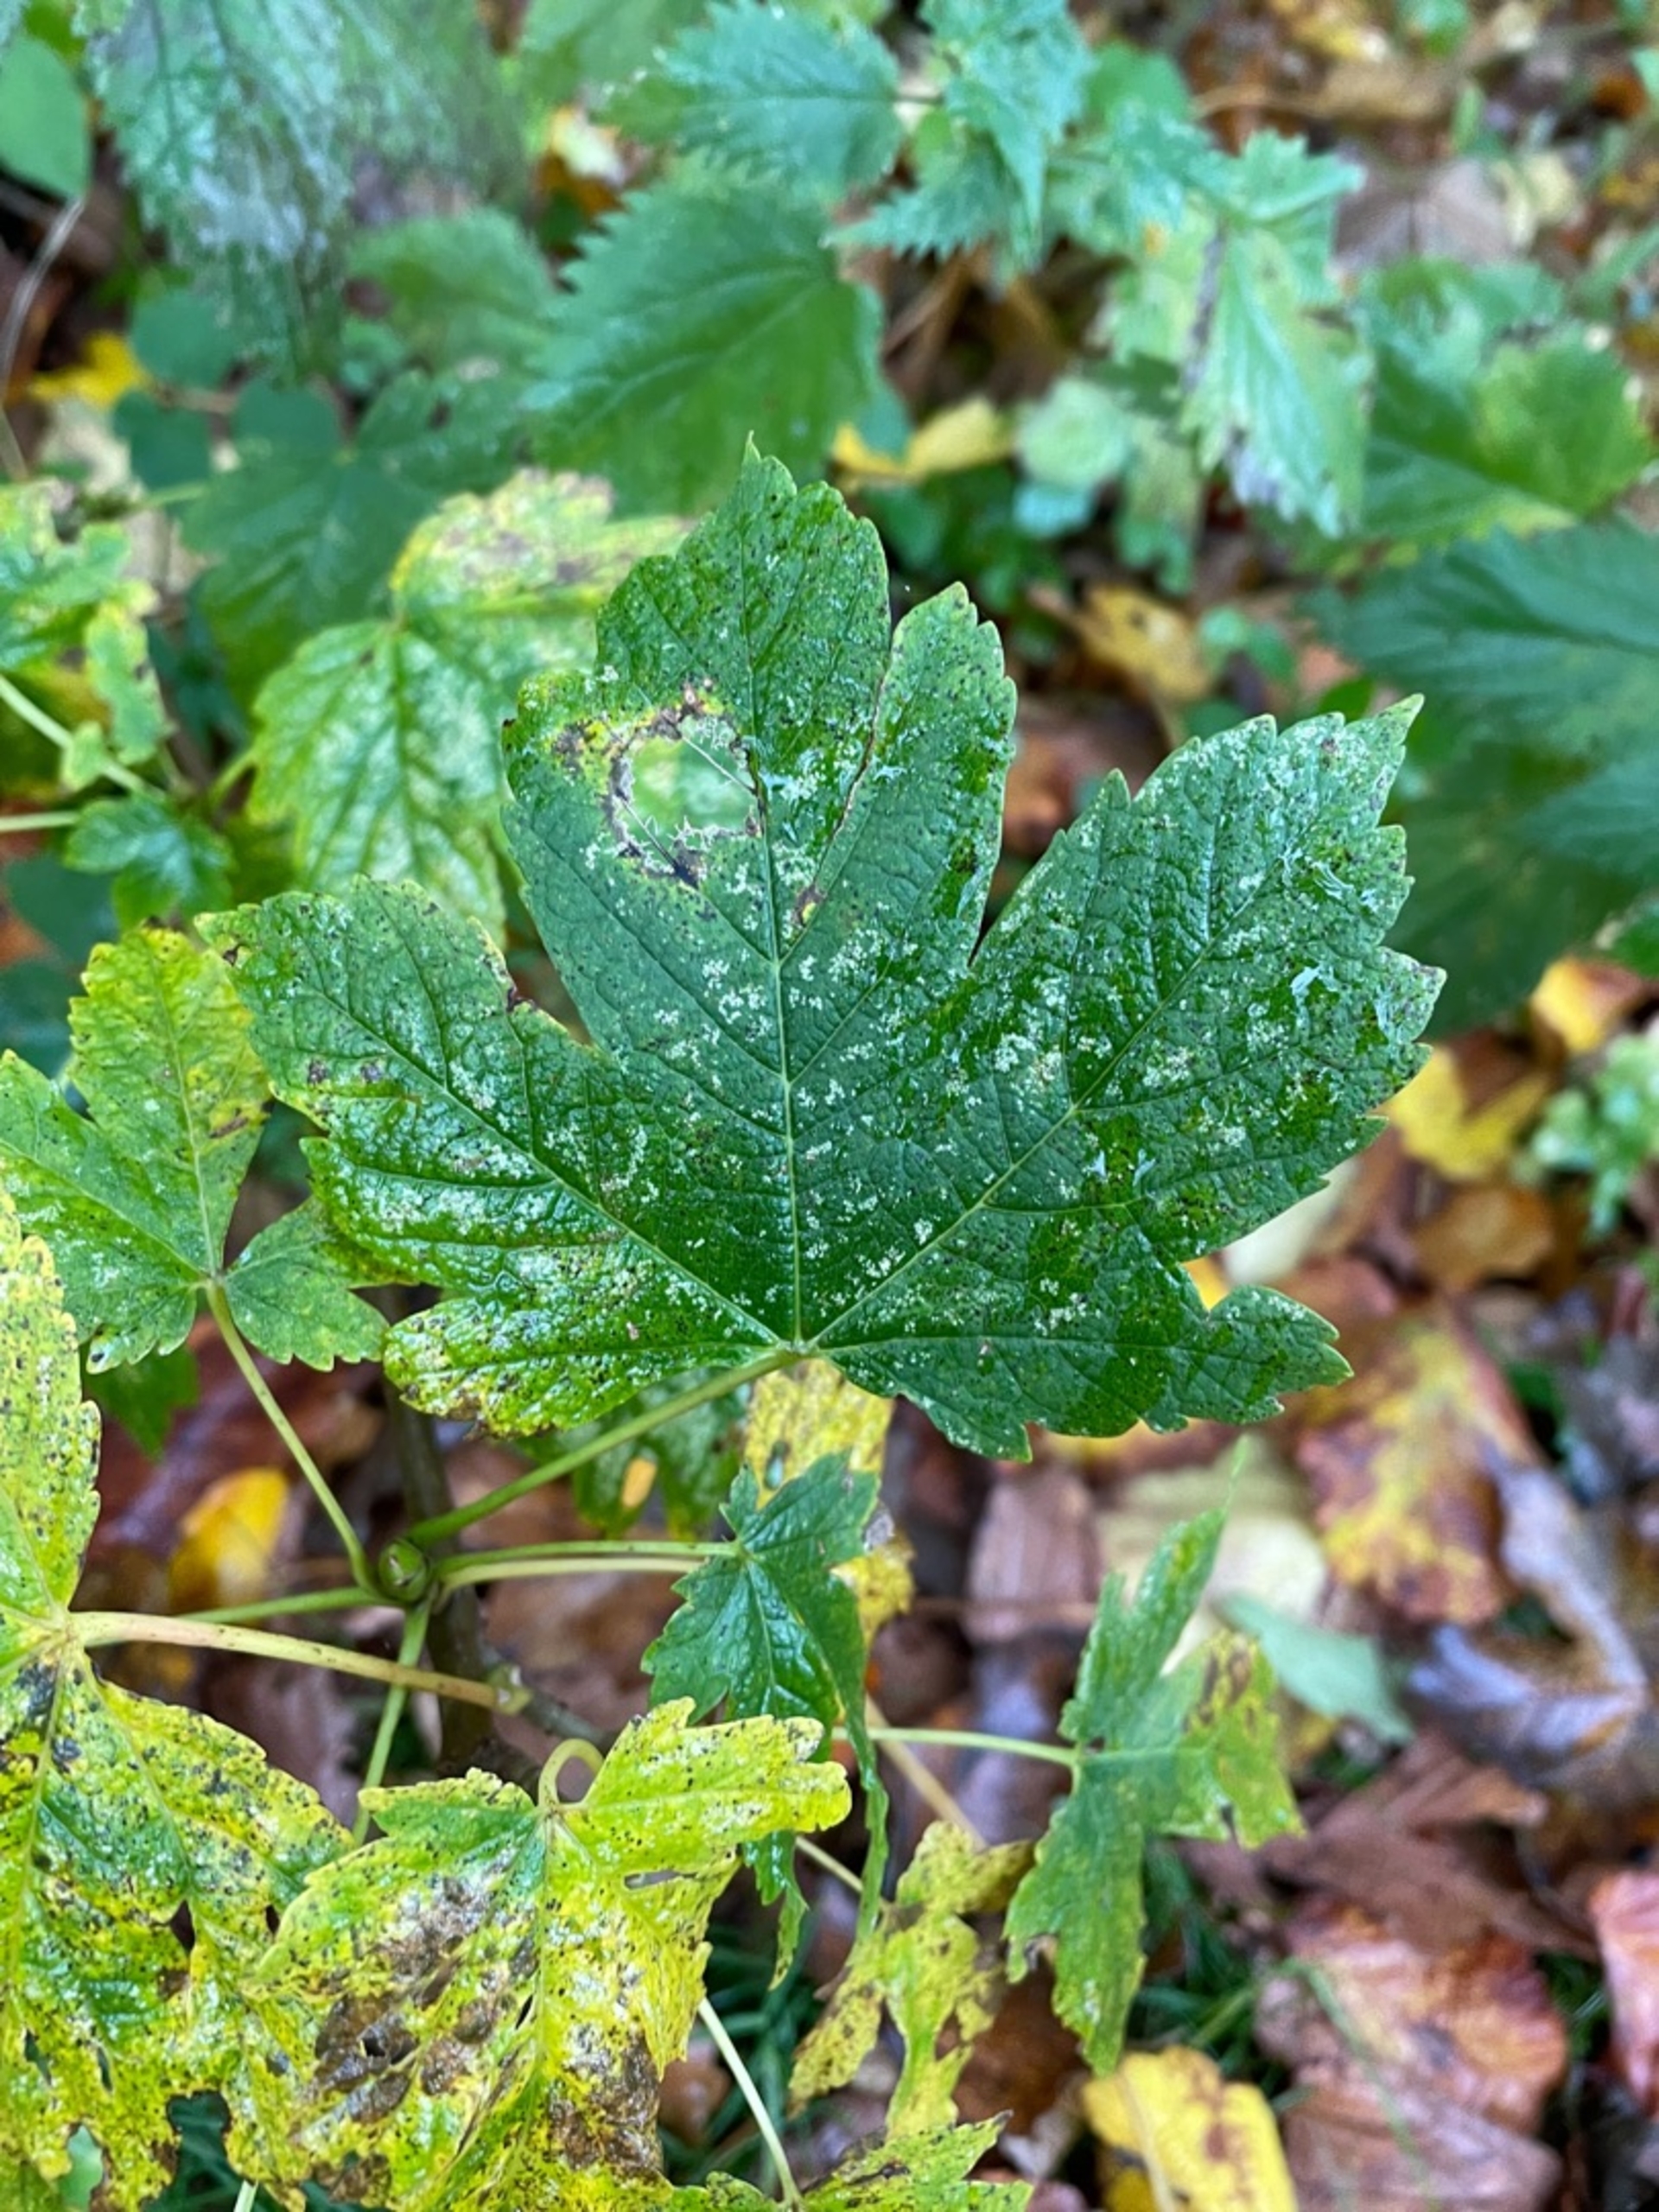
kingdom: Plantae
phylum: Tracheophyta
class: Magnoliopsida
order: Sapindales
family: Sapindaceae
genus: Acer
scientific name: Acer pseudoplatanus
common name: Ahorn
